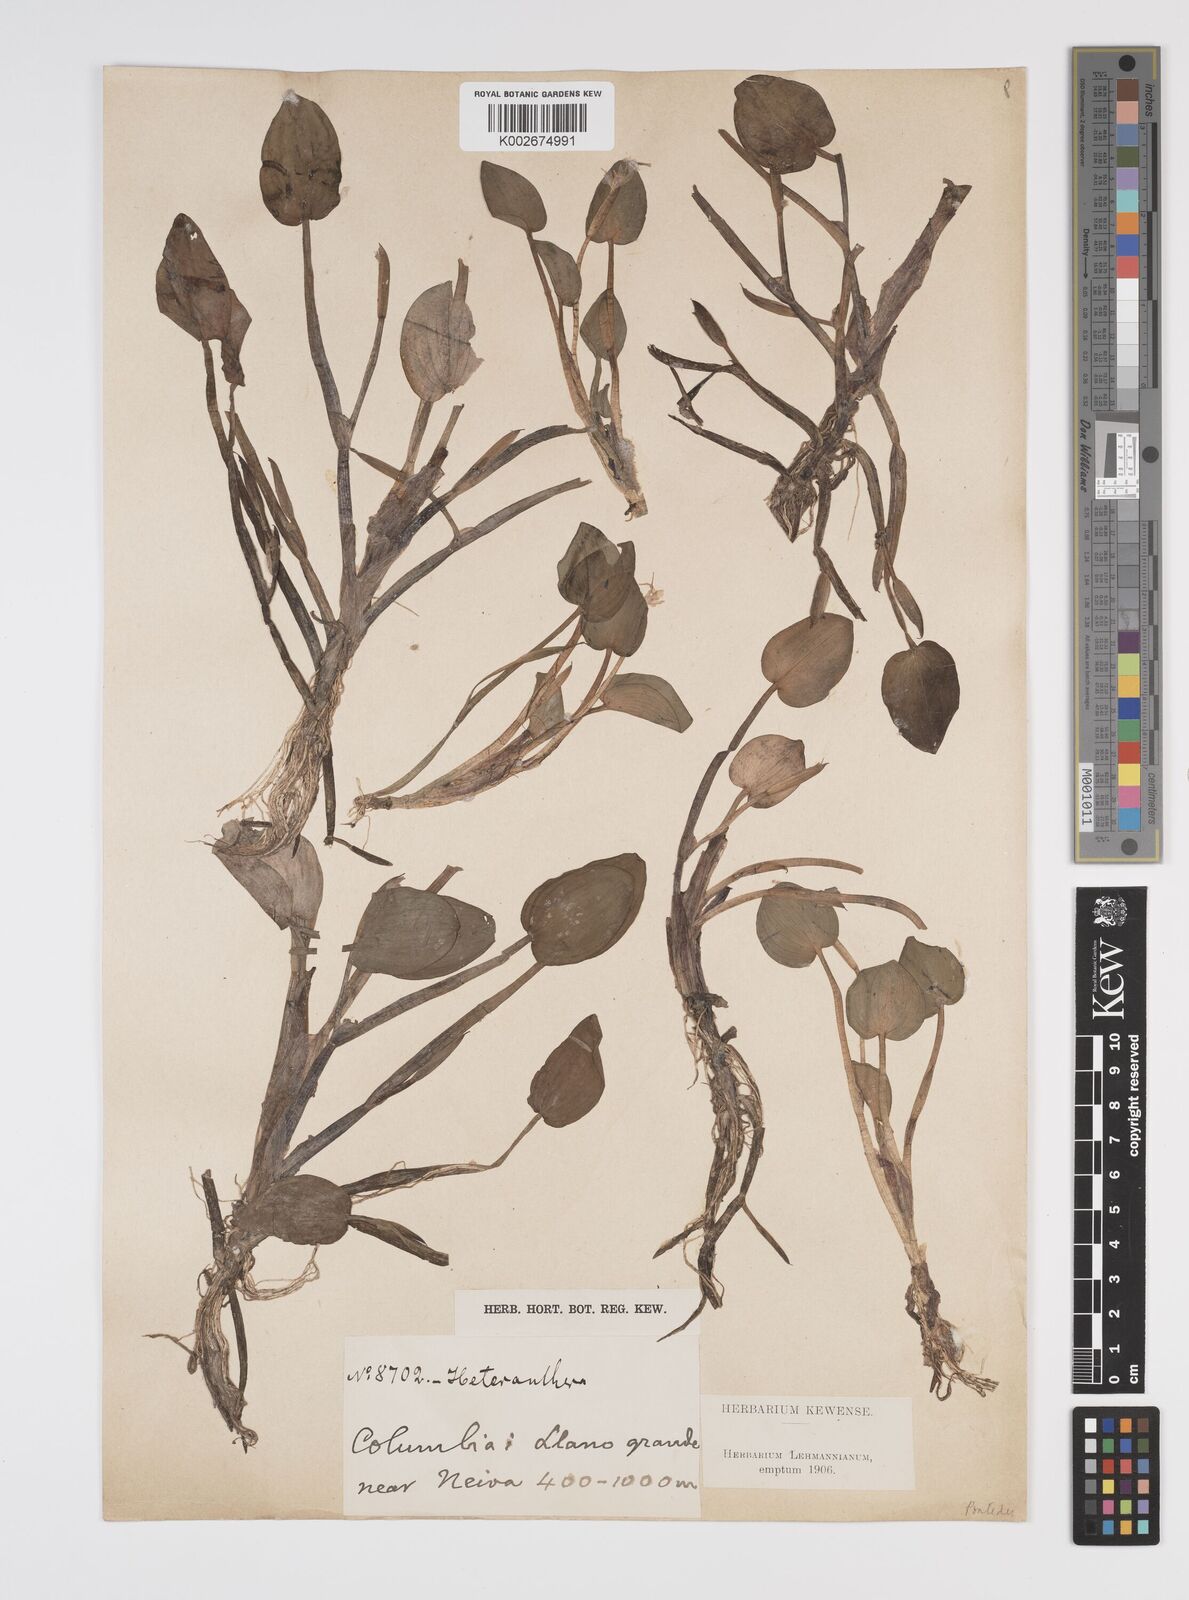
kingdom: Plantae
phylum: Tracheophyta
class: Liliopsida
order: Commelinales
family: Pontederiaceae
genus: Heteranthera
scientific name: Heteranthera limosa
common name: Blue mud-plantain
